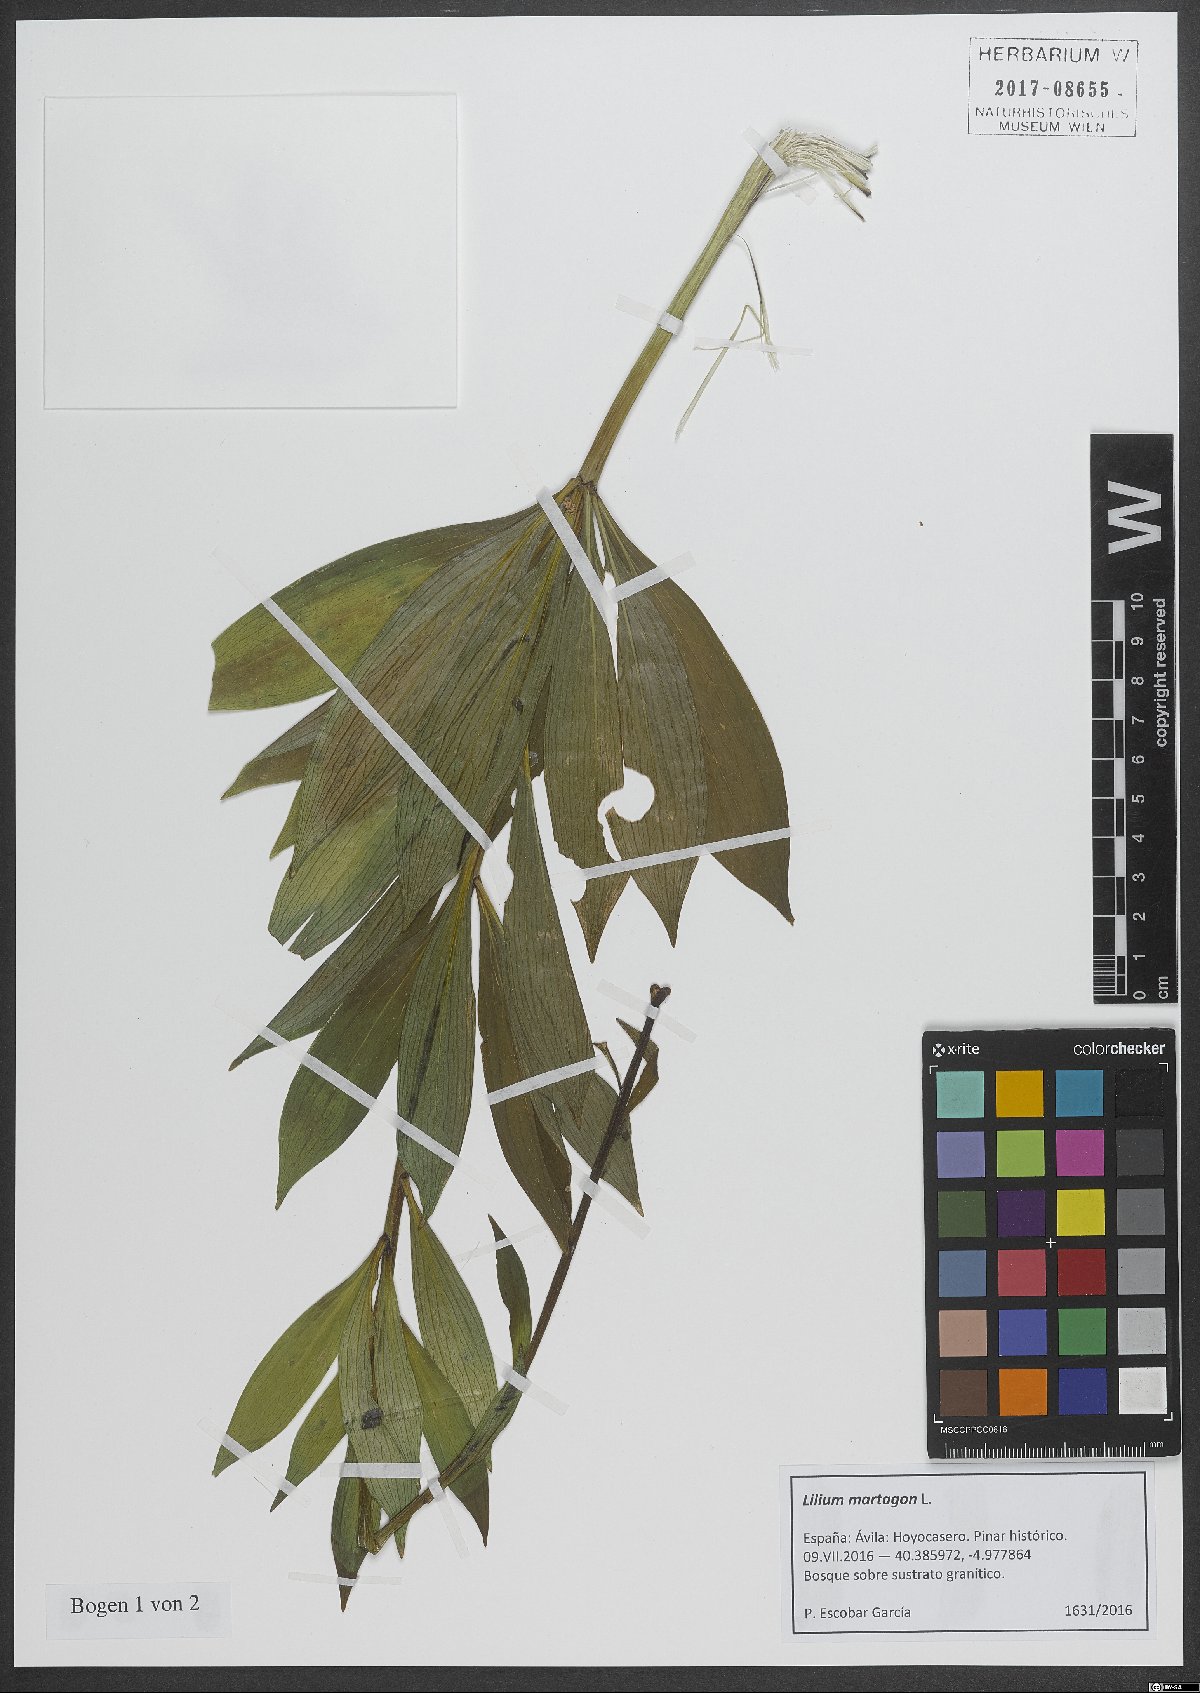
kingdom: Plantae
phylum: Tracheophyta
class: Liliopsida
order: Liliales
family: Liliaceae
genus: Lilium
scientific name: Lilium martagon
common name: Martagon lily
